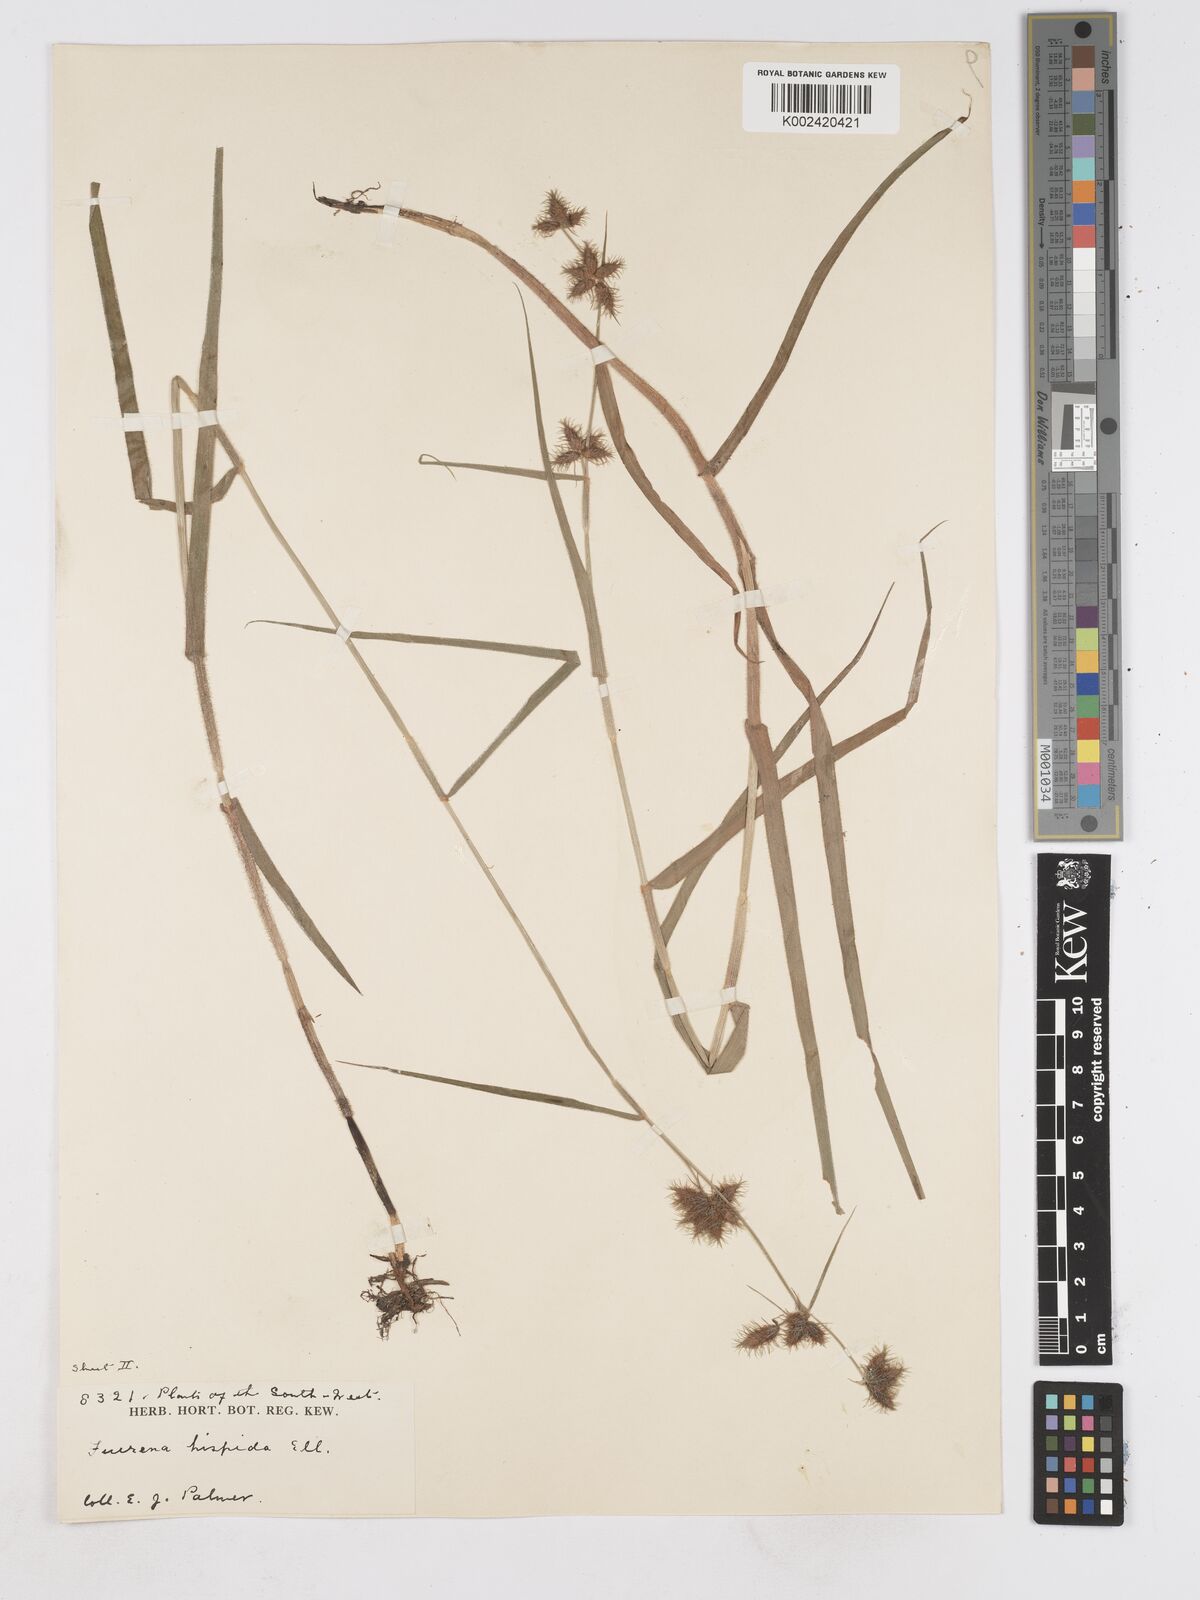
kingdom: Plantae
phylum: Tracheophyta
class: Liliopsida
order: Poales
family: Cyperaceae
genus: Fuirena
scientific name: Fuirena squarrosa
